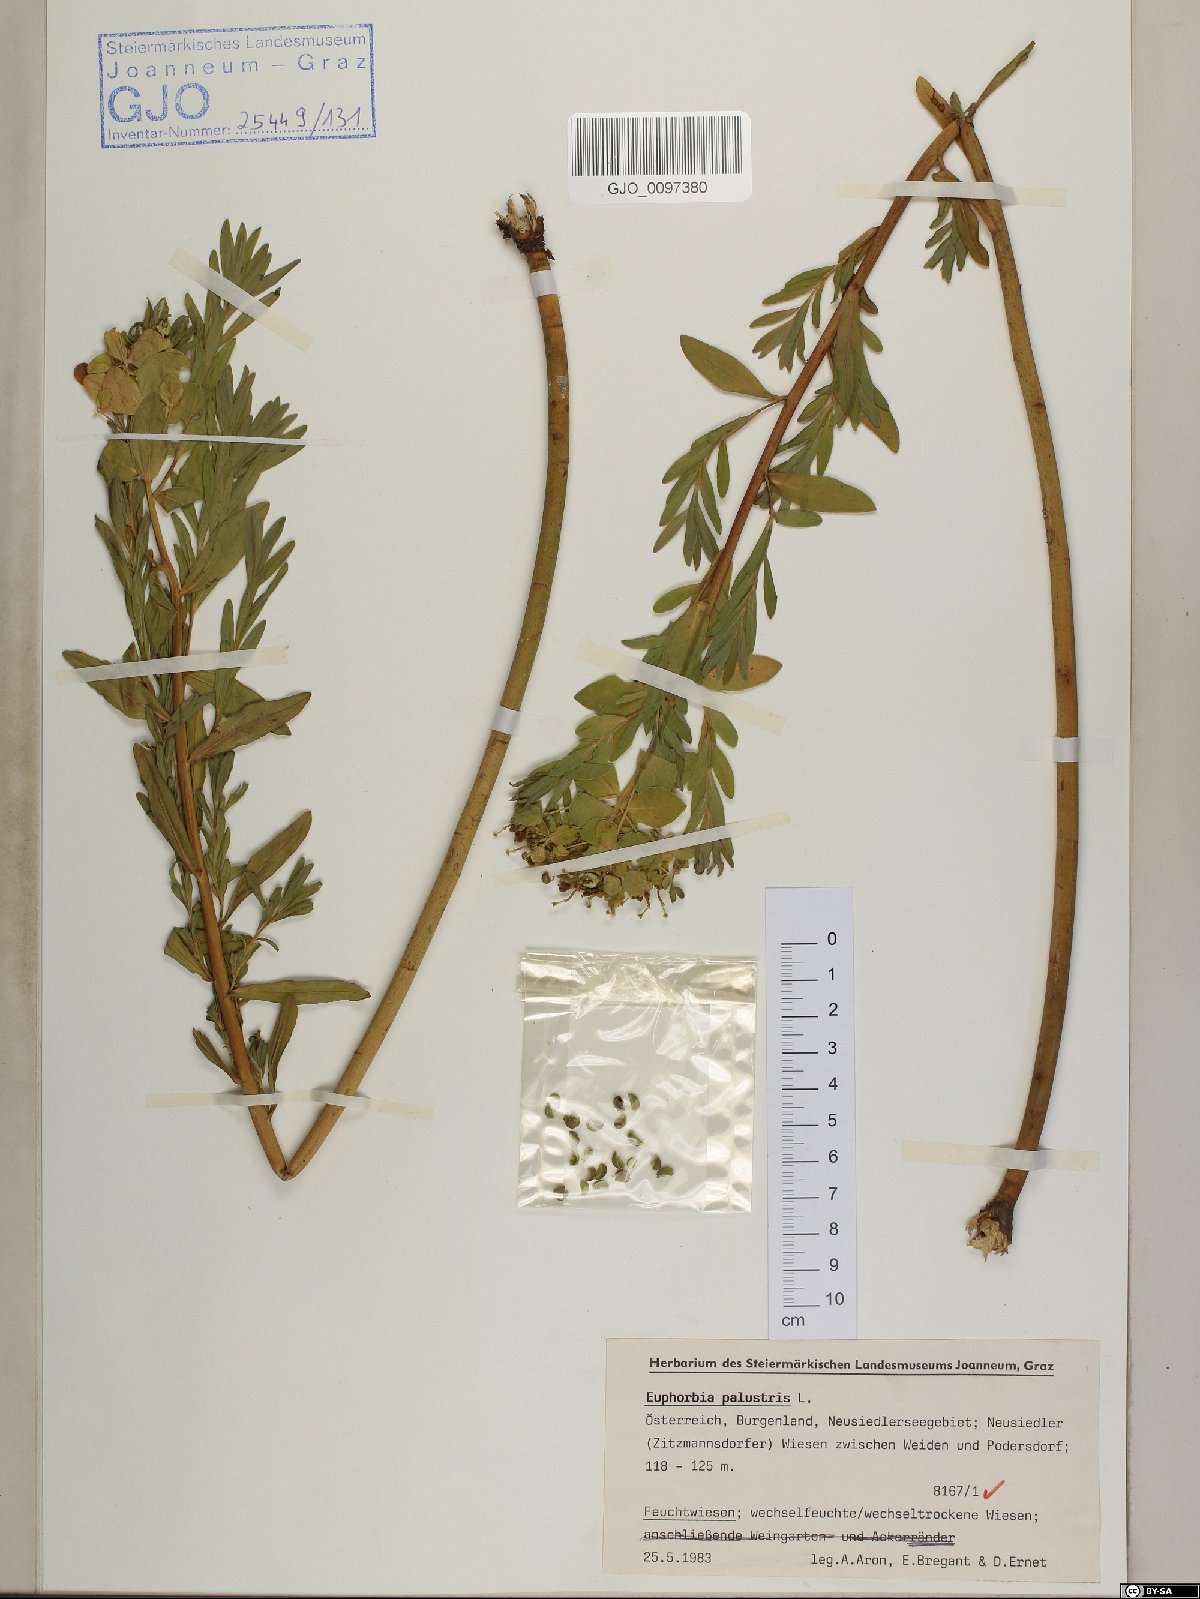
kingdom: Plantae
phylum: Tracheophyta
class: Magnoliopsida
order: Malpighiales
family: Euphorbiaceae
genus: Euphorbia
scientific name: Euphorbia palustris
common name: Marsh spurge
